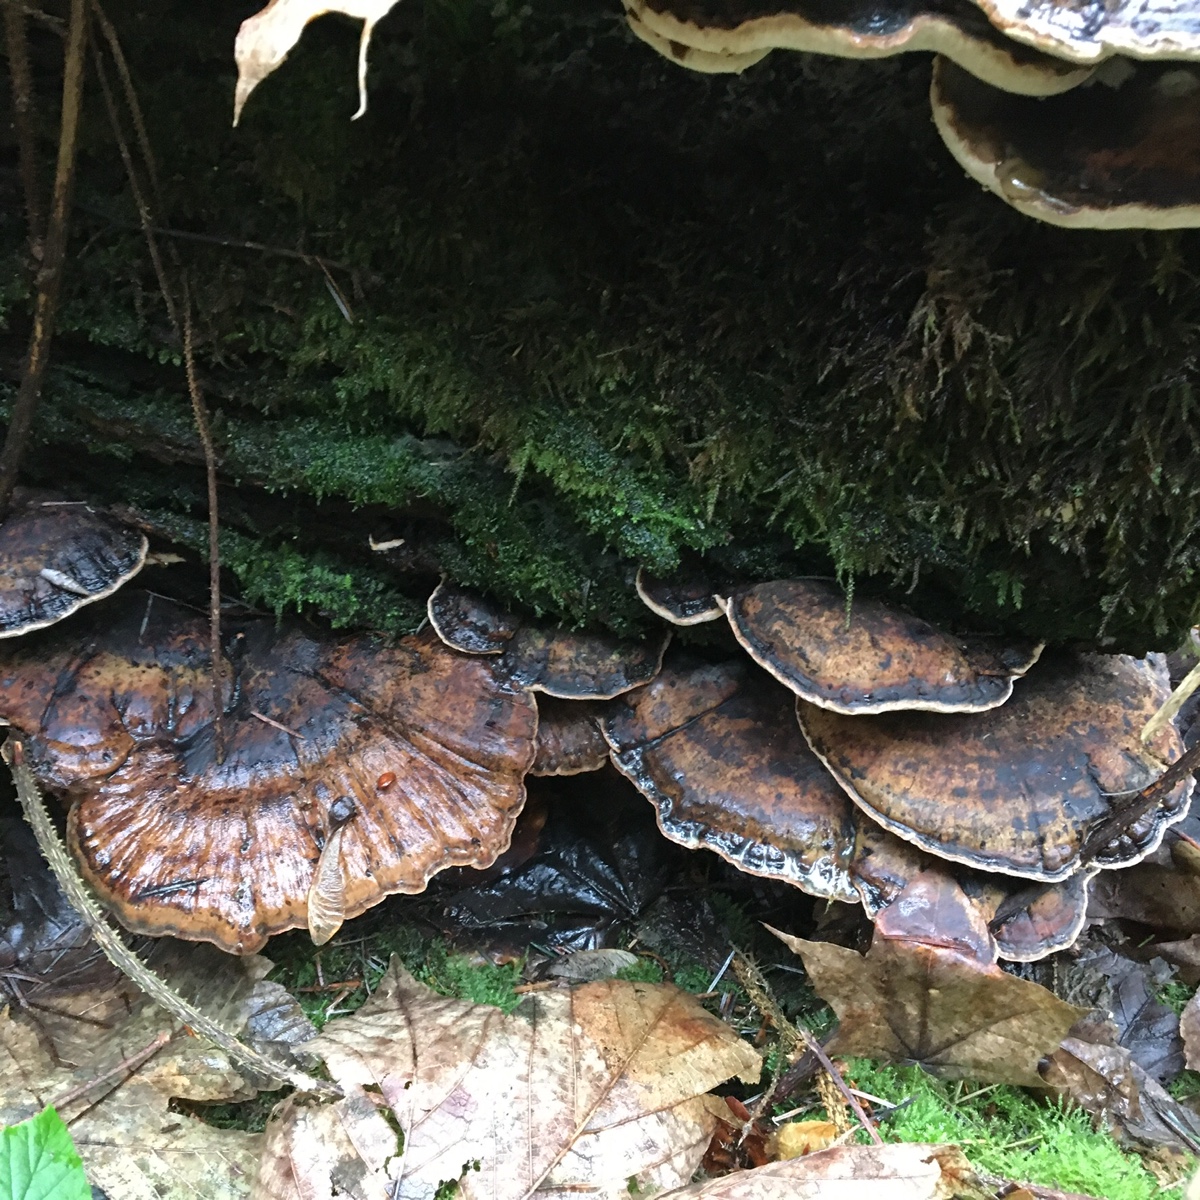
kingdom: Fungi
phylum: Basidiomycota
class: Agaricomycetes
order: Polyporales
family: Ischnodermataceae
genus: Ischnoderma
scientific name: Ischnoderma resinosum
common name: løv-tjæreporesvamp
